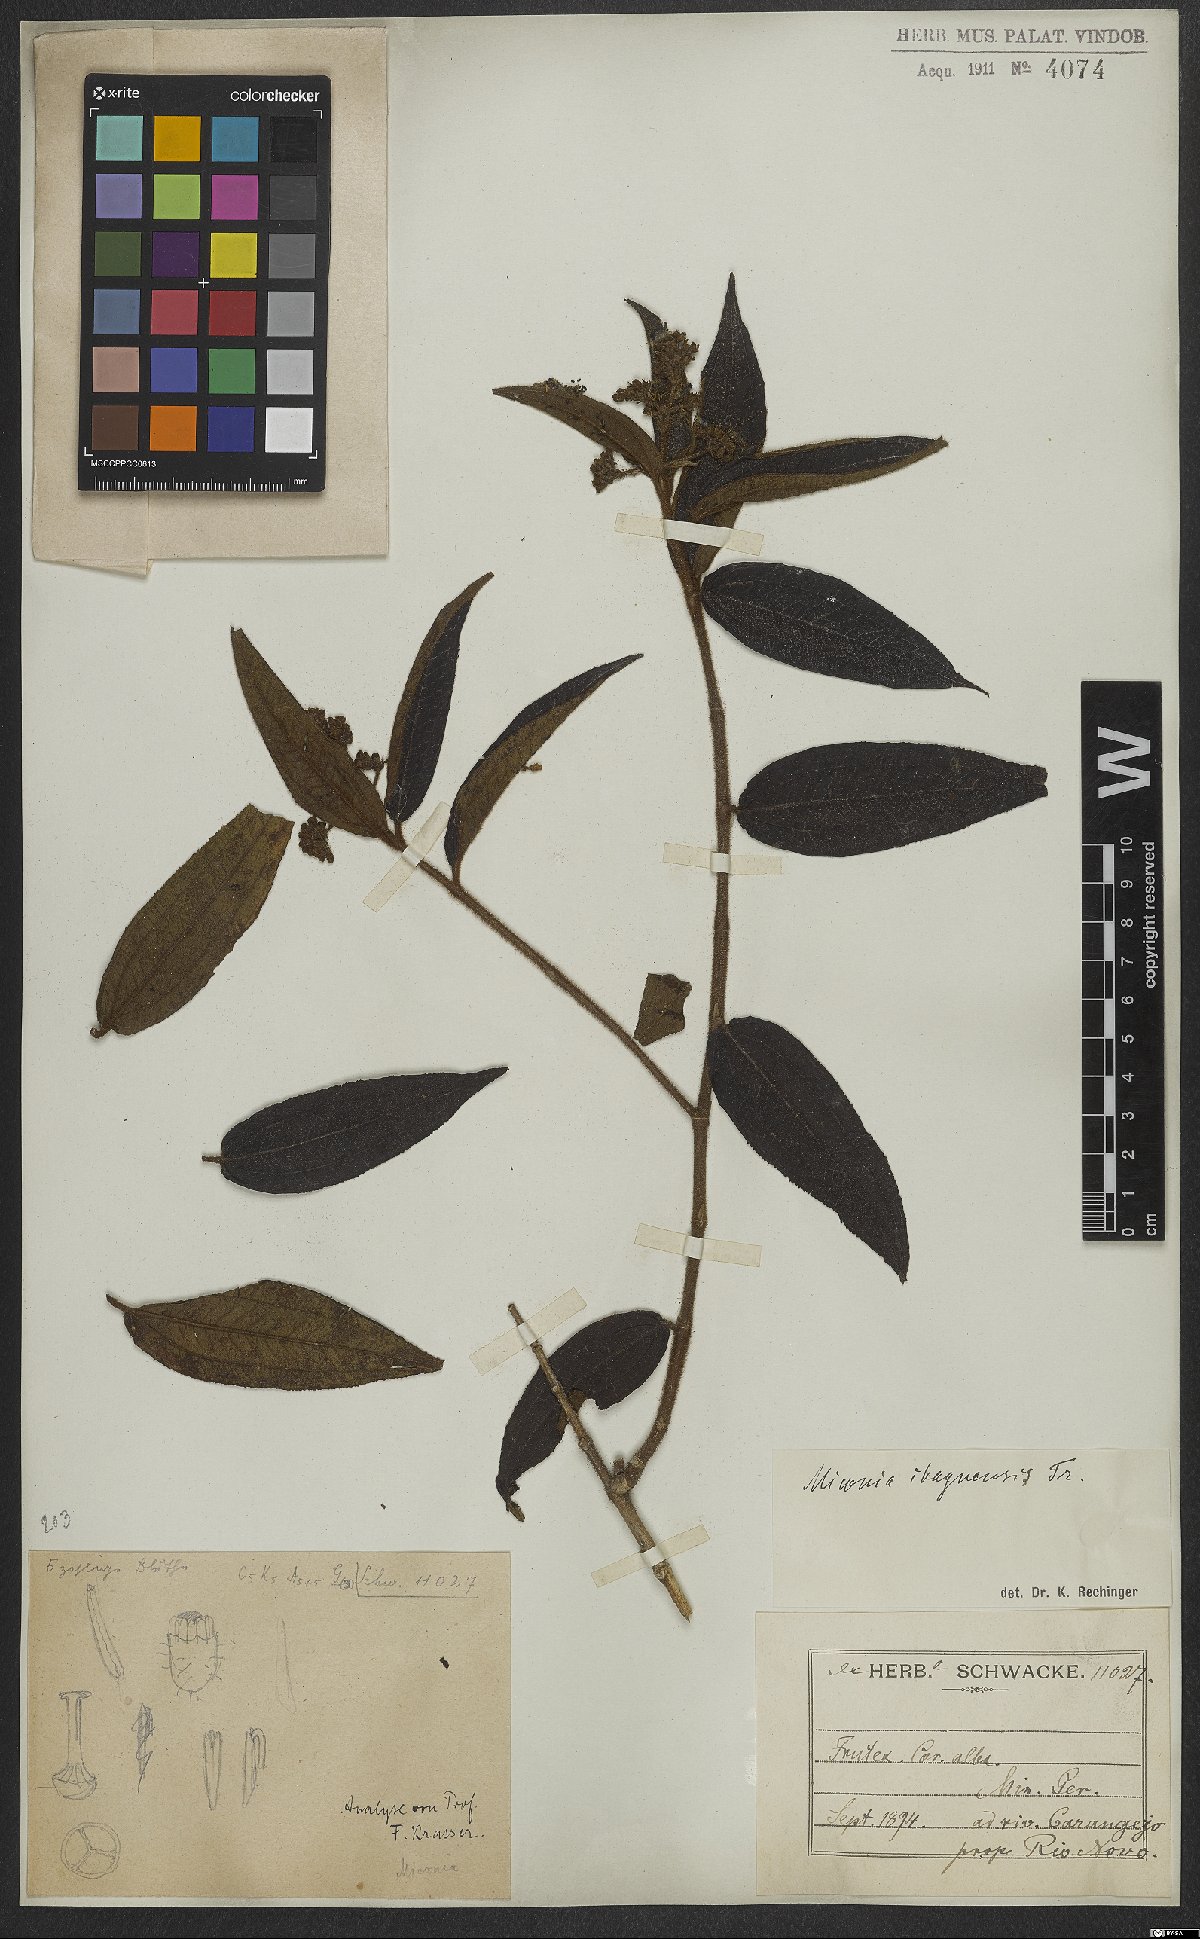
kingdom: Plantae
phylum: Tracheophyta
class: Magnoliopsida
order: Myrtales
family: Melastomataceae
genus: Miconia
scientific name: Miconia ibaguensis
